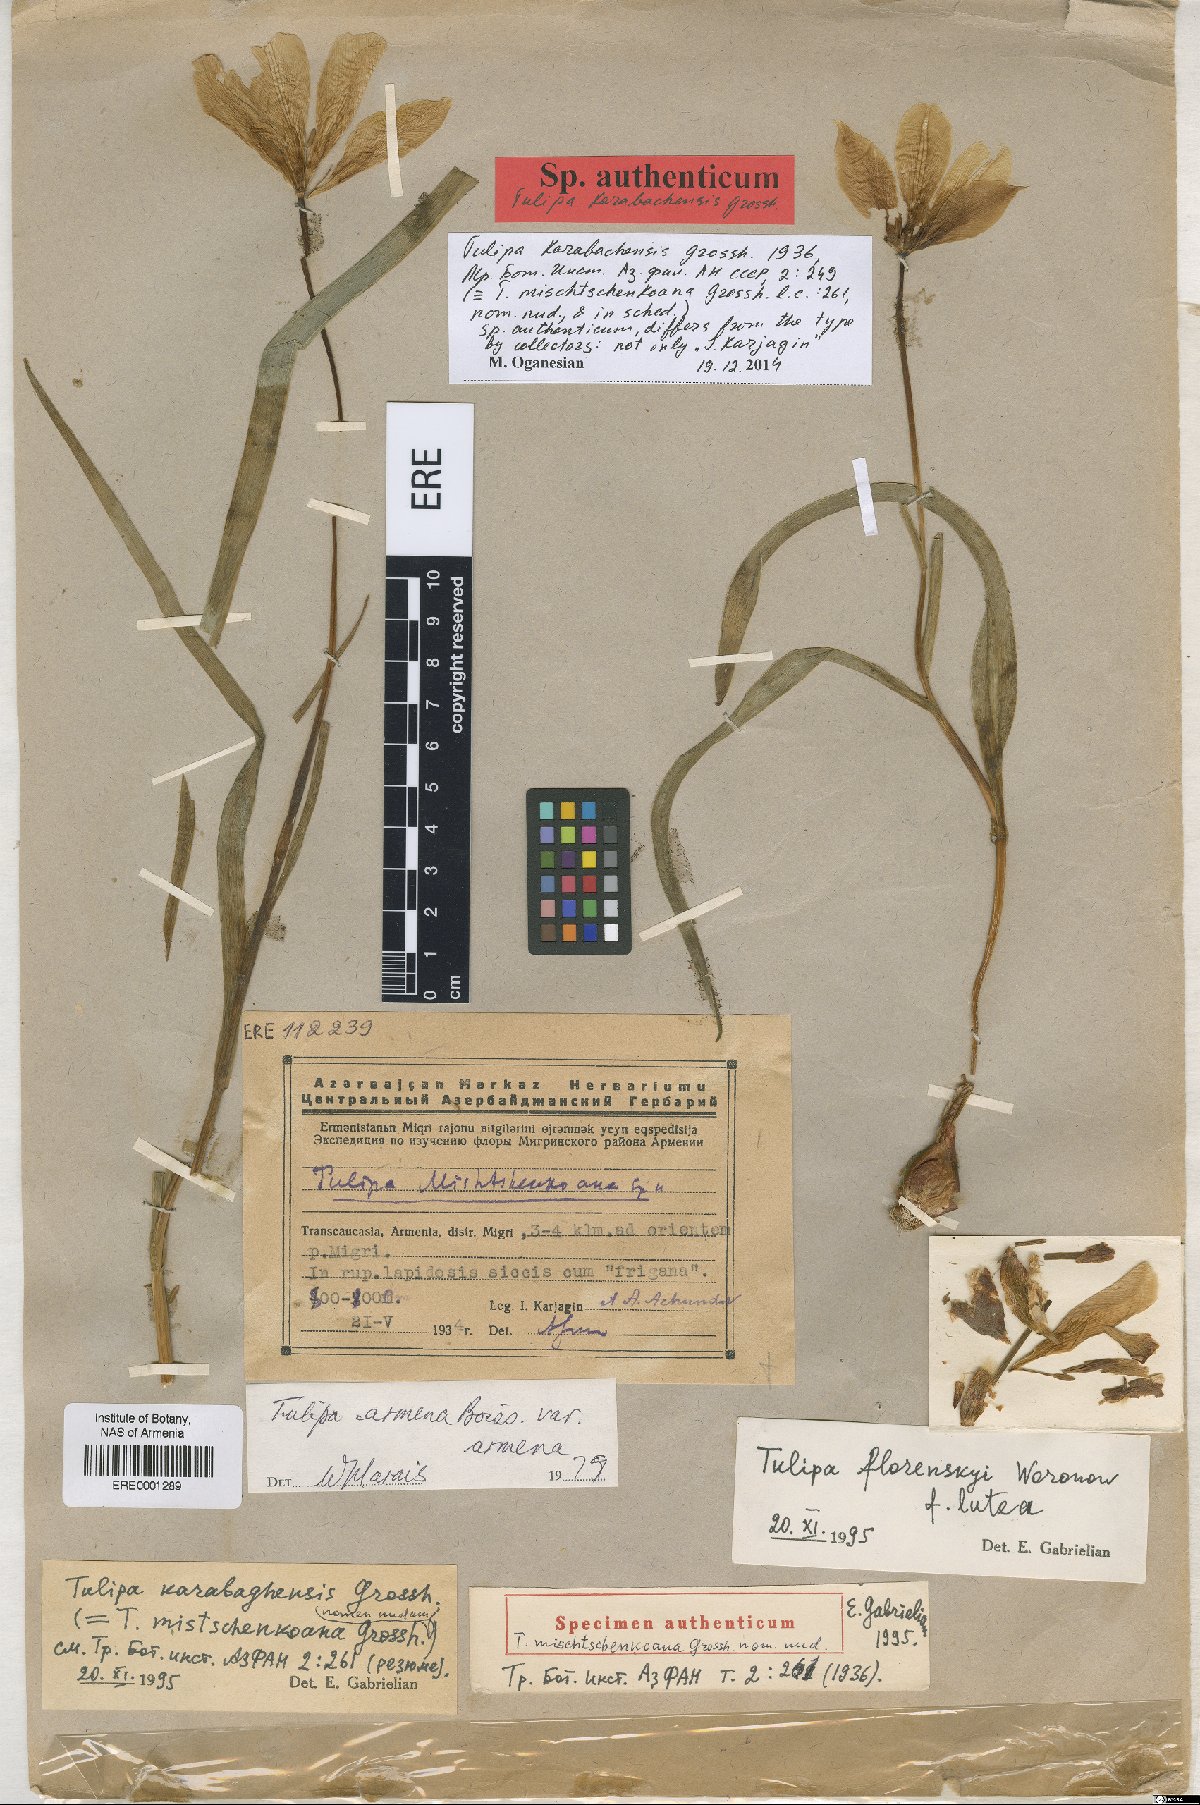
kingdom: Plantae
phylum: Tracheophyta
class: Liliopsida
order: Liliales
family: Liliaceae
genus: Tulipa
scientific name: Tulipa armena
